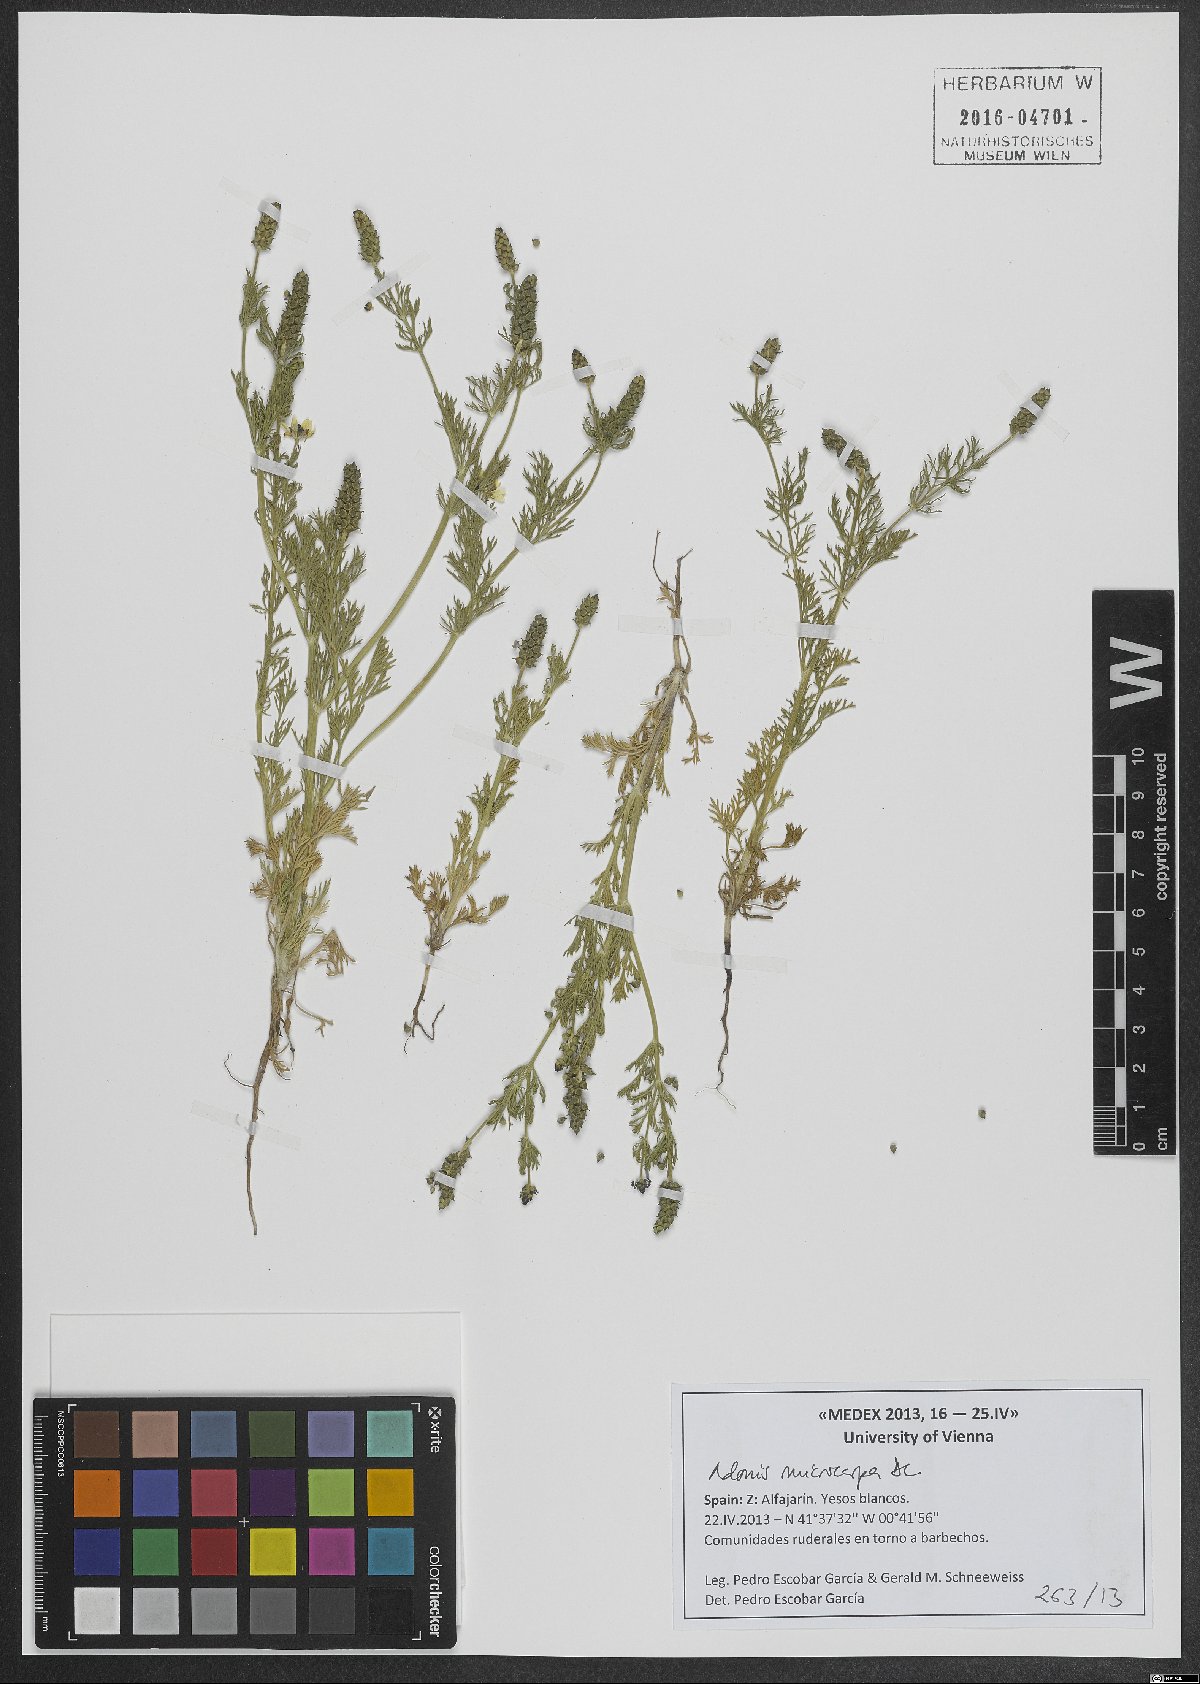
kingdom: Plantae
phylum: Tracheophyta
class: Magnoliopsida
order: Ranunculales
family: Ranunculaceae
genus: Adonis
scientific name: Adonis microcarpa
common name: Pheasant's-eye
